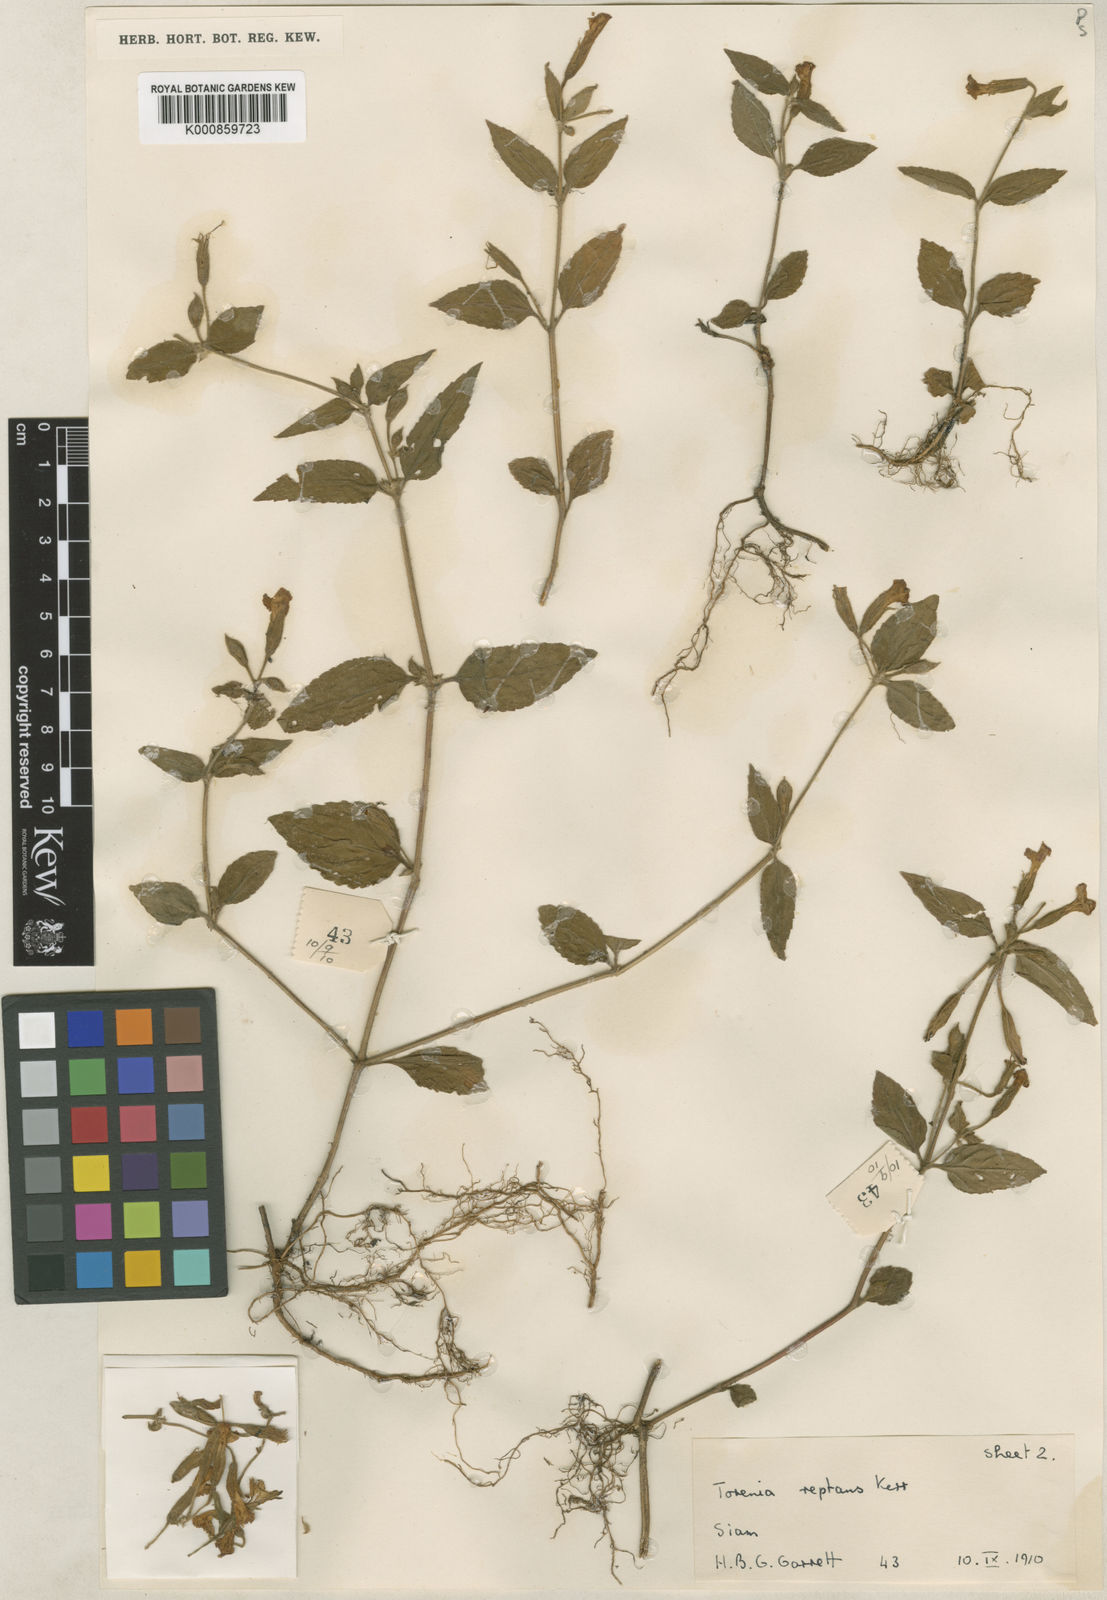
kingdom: Plantae
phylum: Tracheophyta
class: Magnoliopsida
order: Lamiales
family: Linderniaceae
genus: Torenia
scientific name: Torenia pierreana
